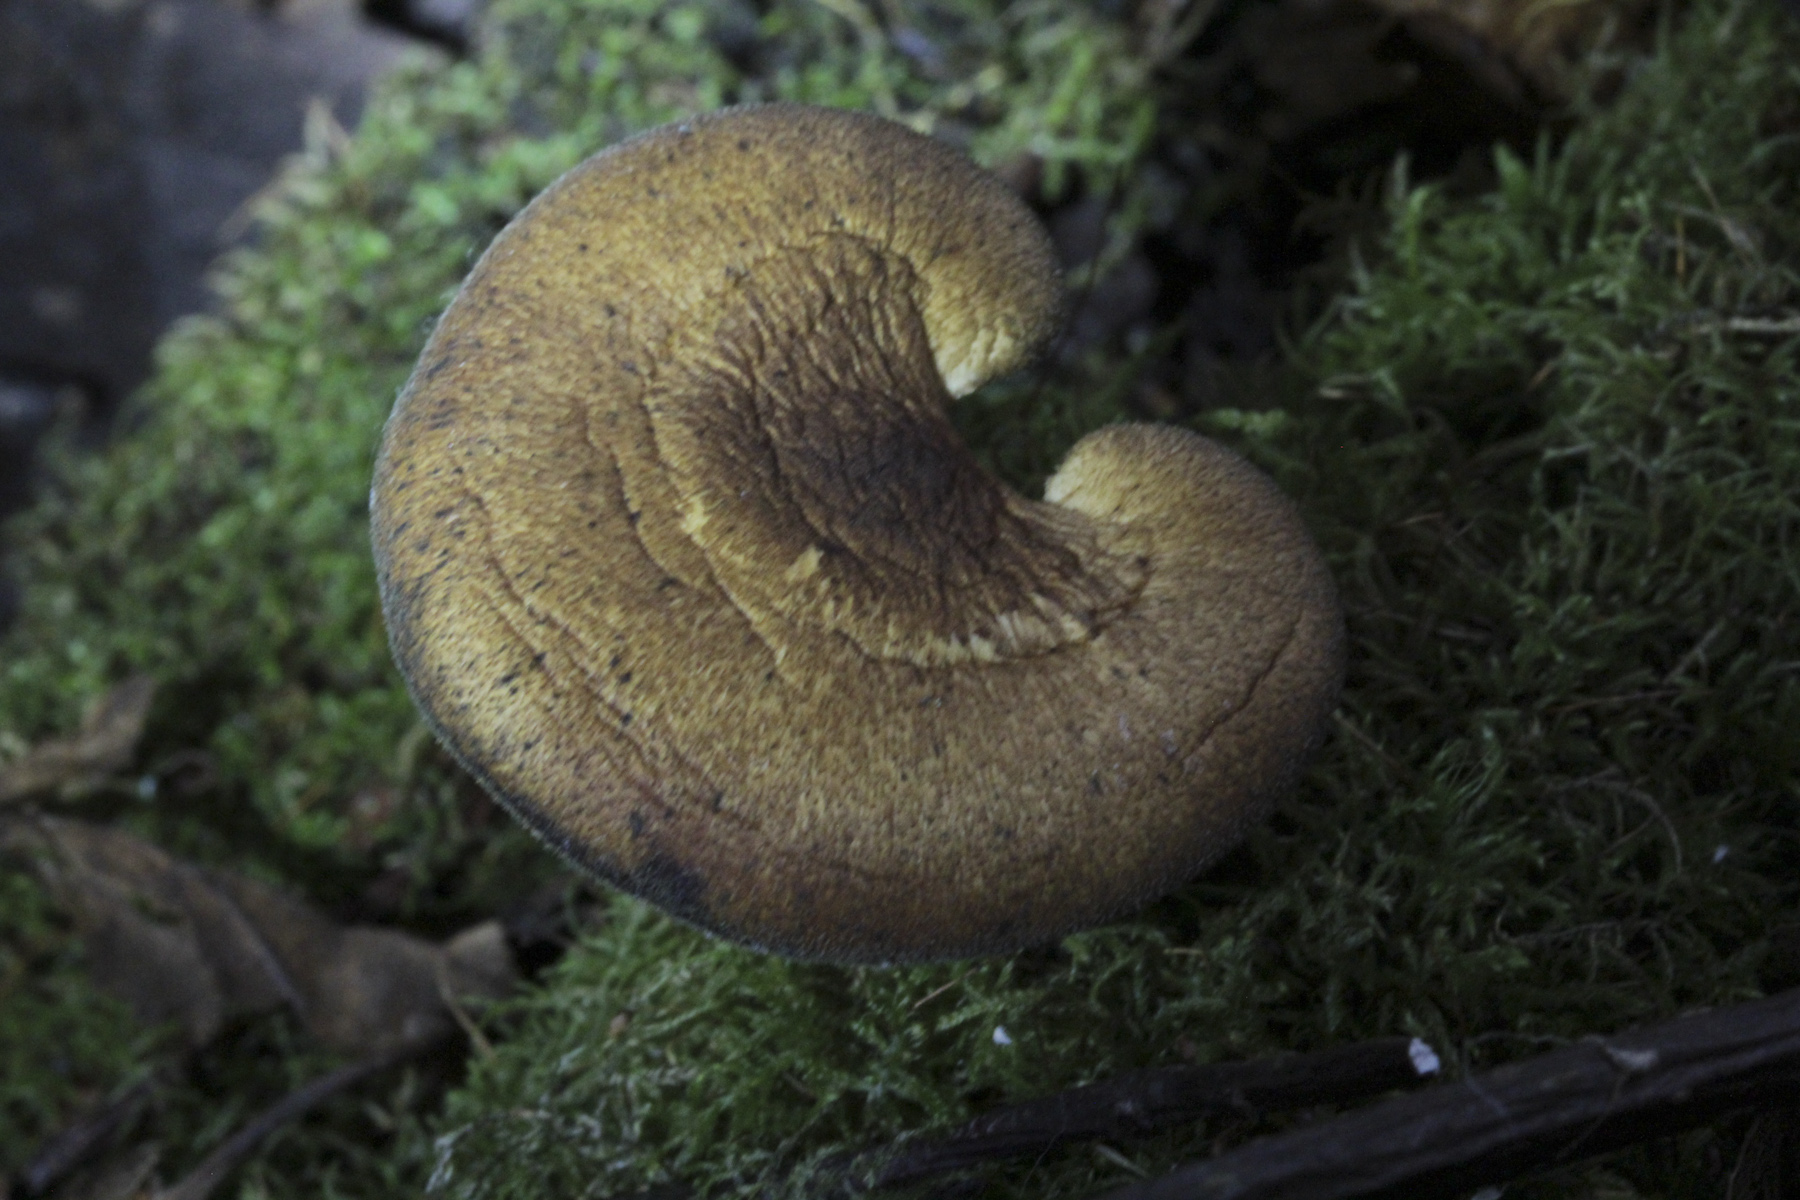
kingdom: Fungi
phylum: Basidiomycota
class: Agaricomycetes
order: Polyporales
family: Polyporaceae
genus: Lentinus
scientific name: Lentinus substrictus
